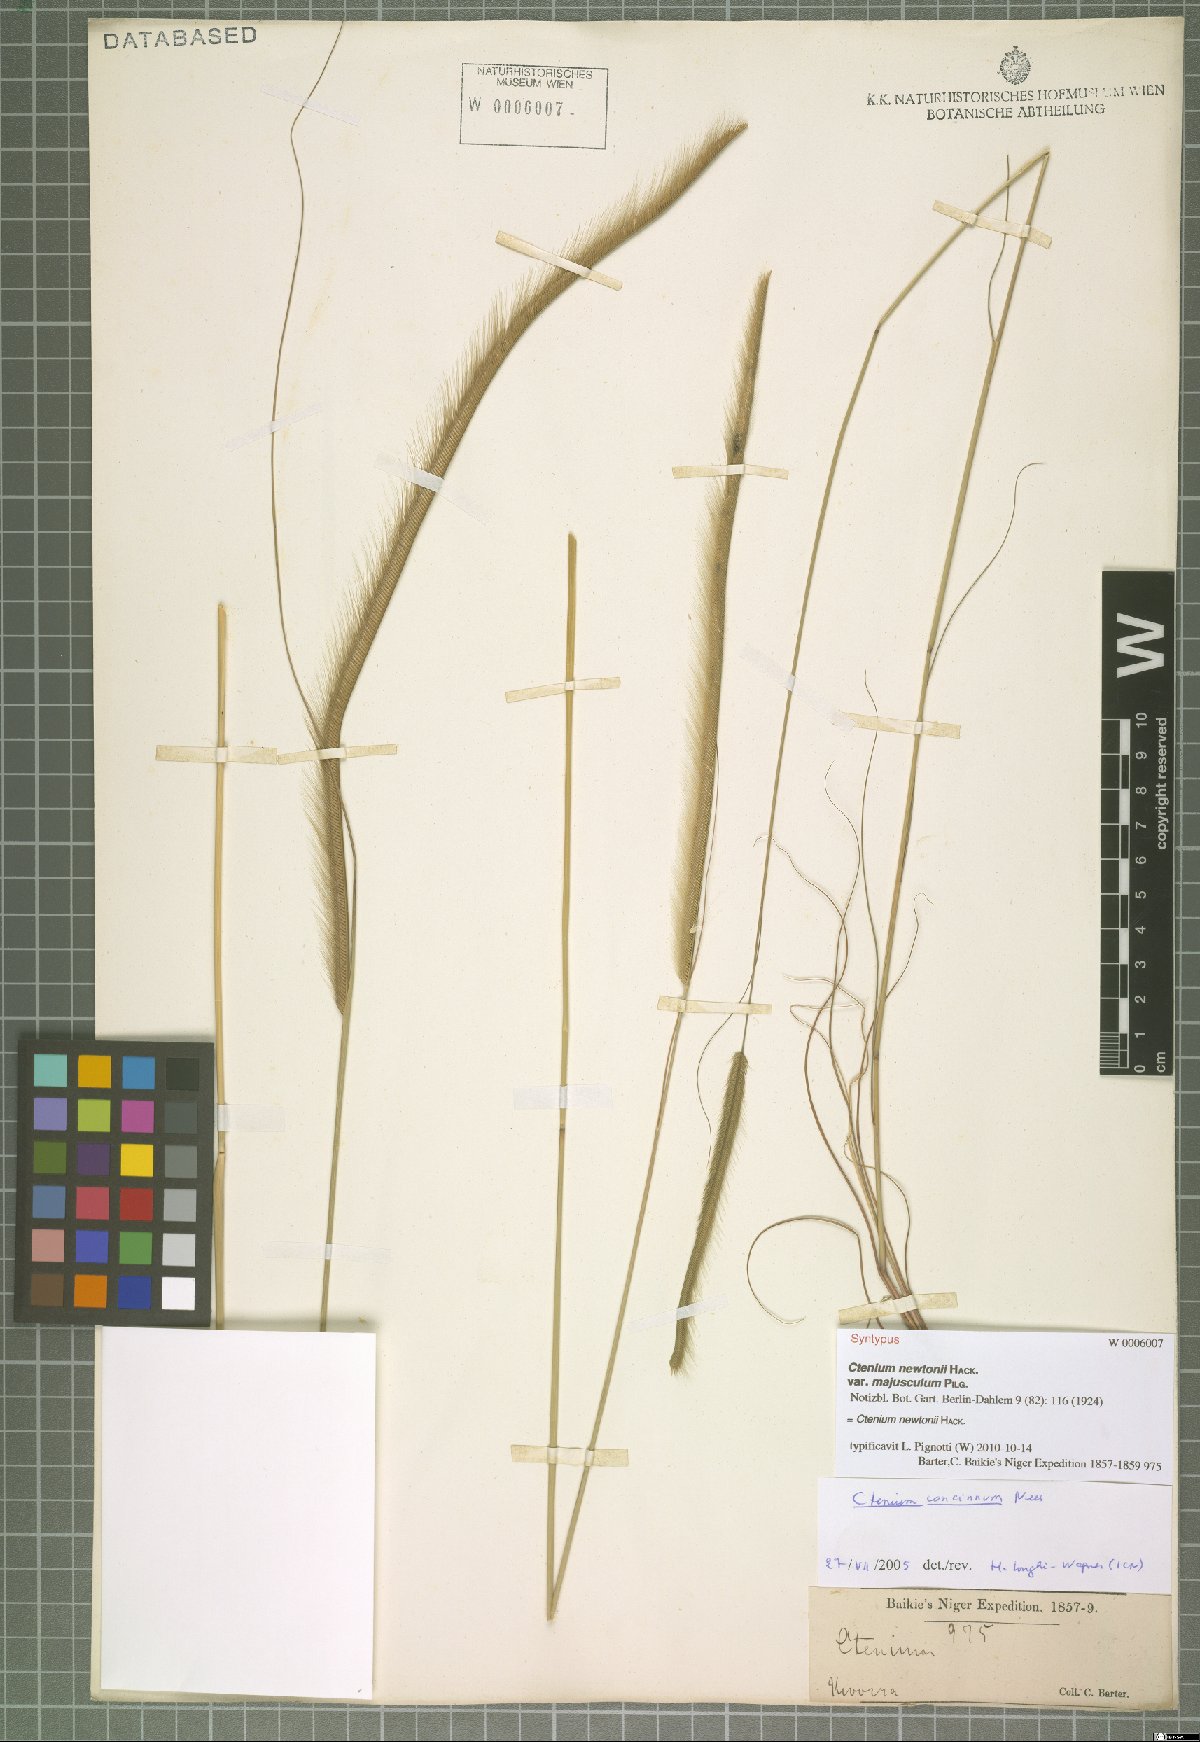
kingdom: Plantae
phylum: Tracheophyta
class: Liliopsida
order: Poales
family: Poaceae
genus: Ctenium
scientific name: Ctenium newtonii
